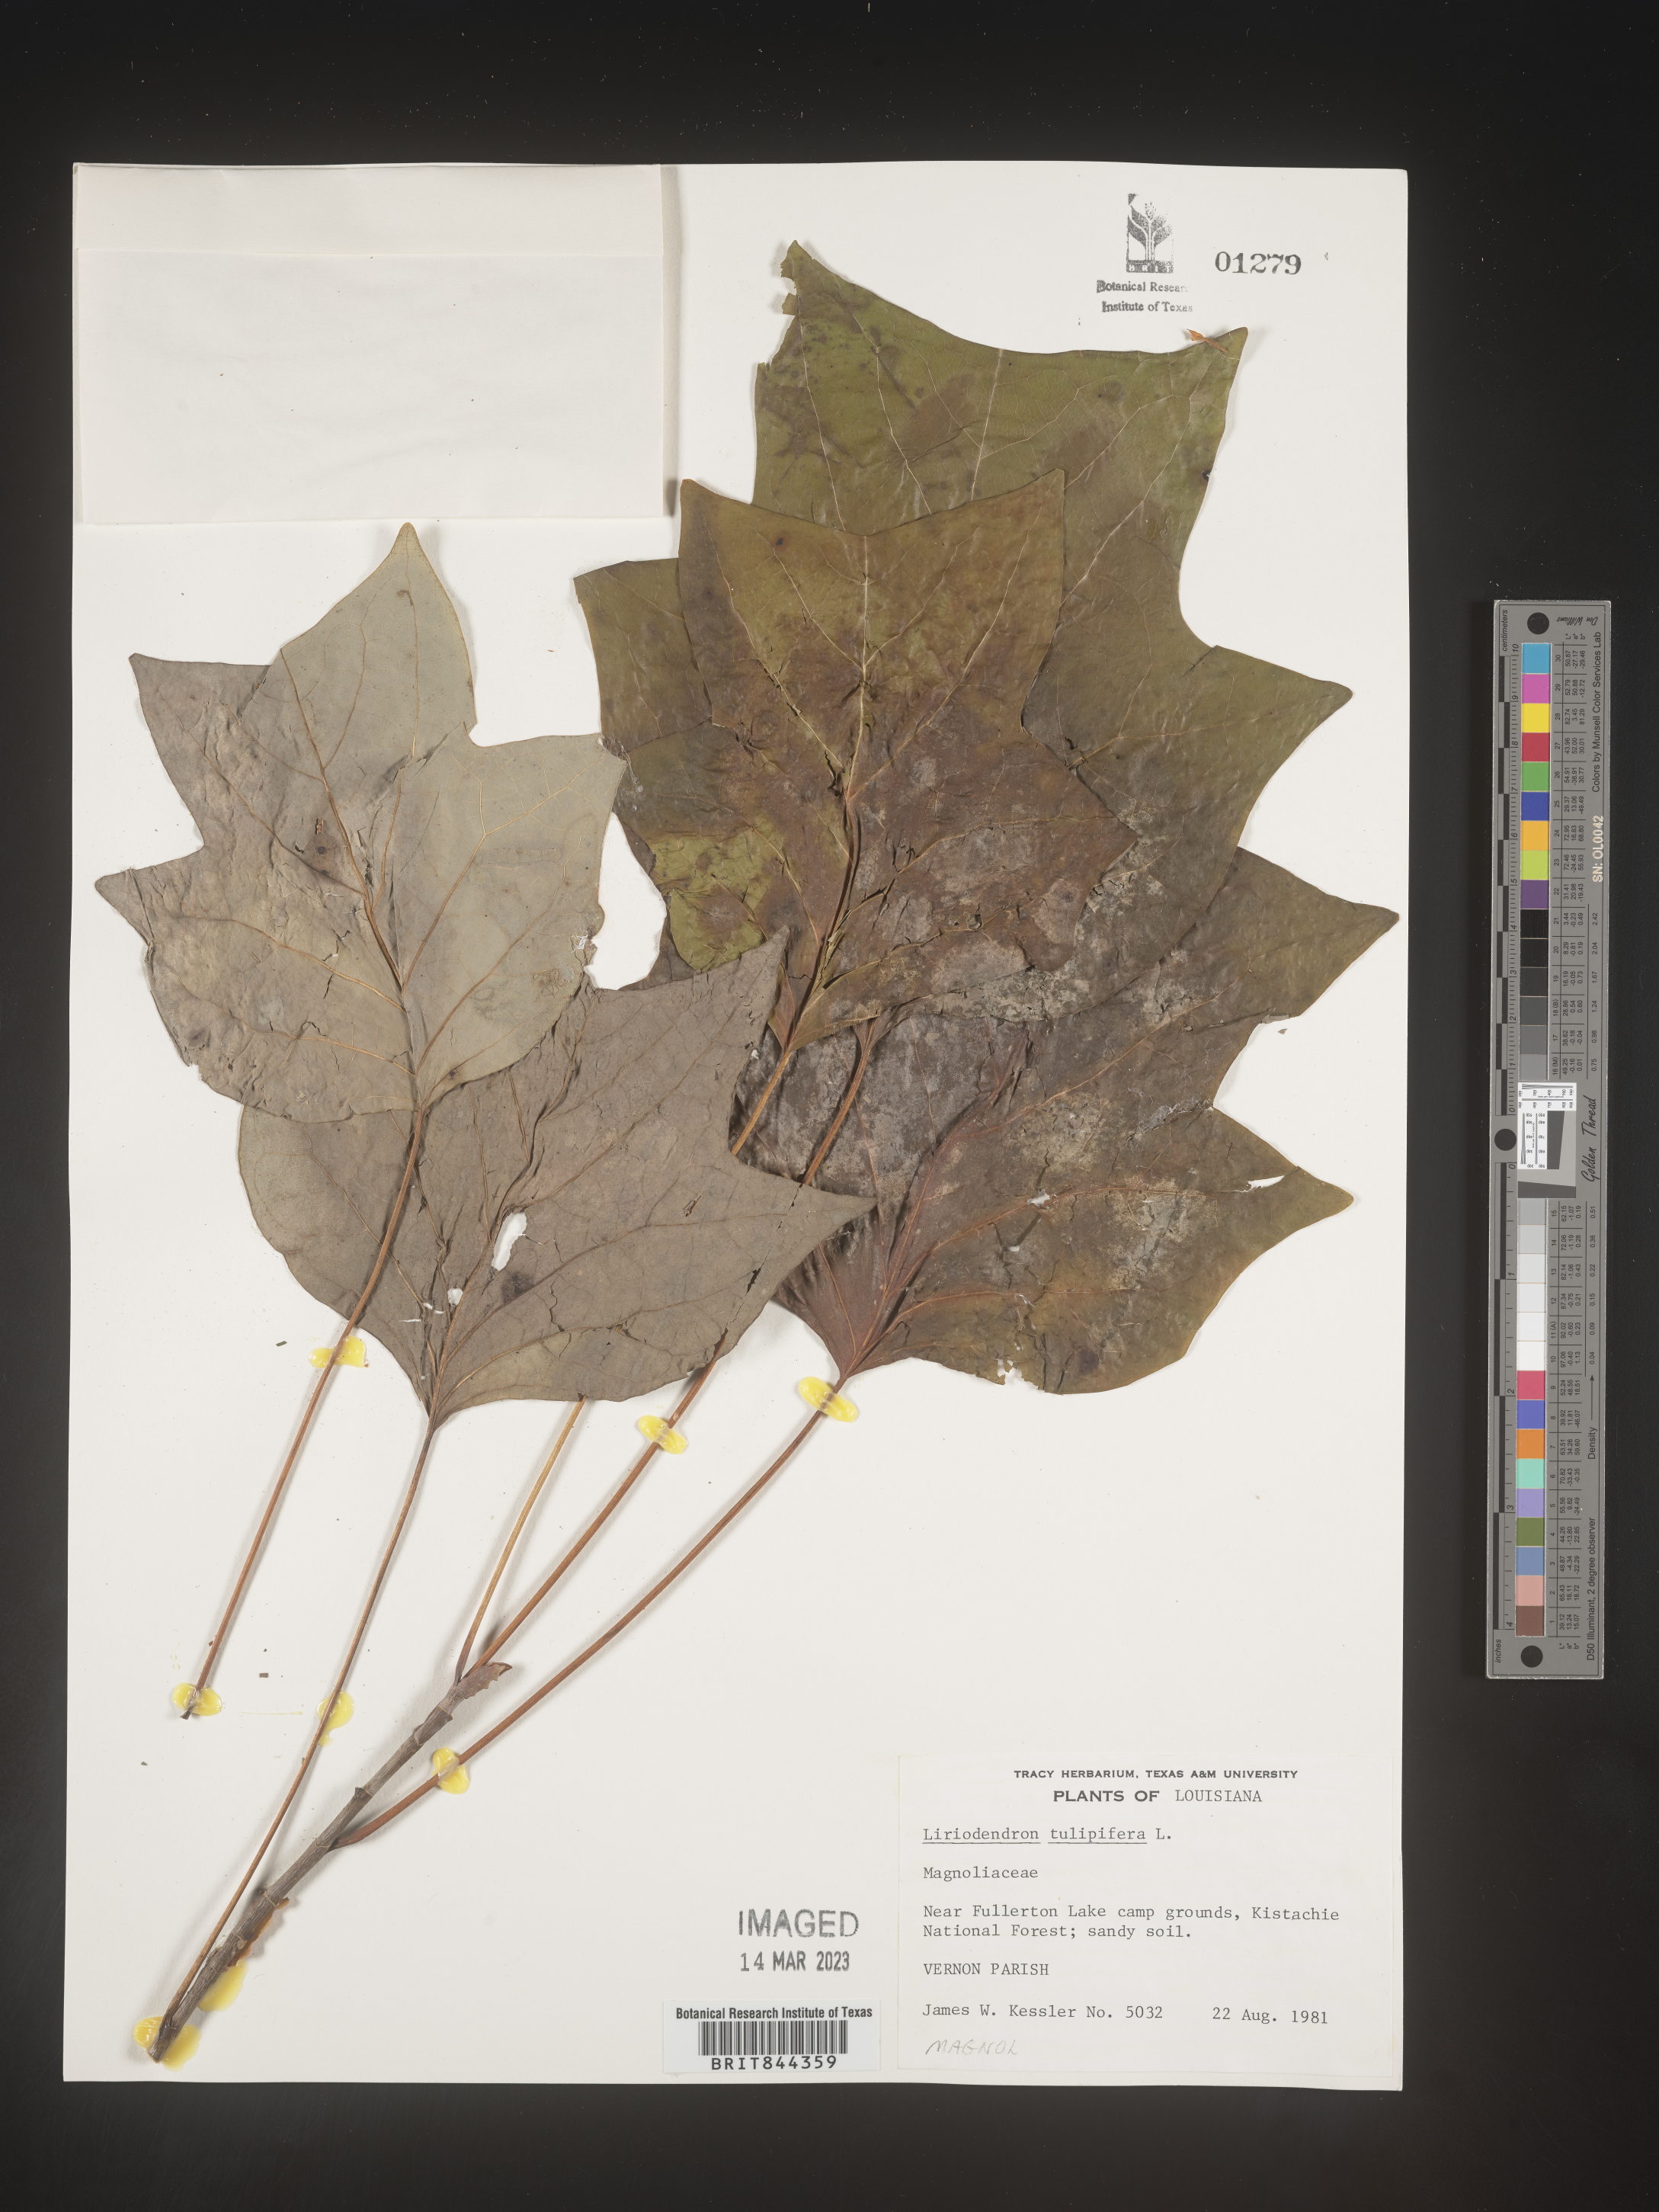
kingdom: Plantae
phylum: Tracheophyta
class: Magnoliopsida
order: Magnoliales
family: Magnoliaceae
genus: Liriodendron
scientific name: Liriodendron tulipifera
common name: Tulip tree
